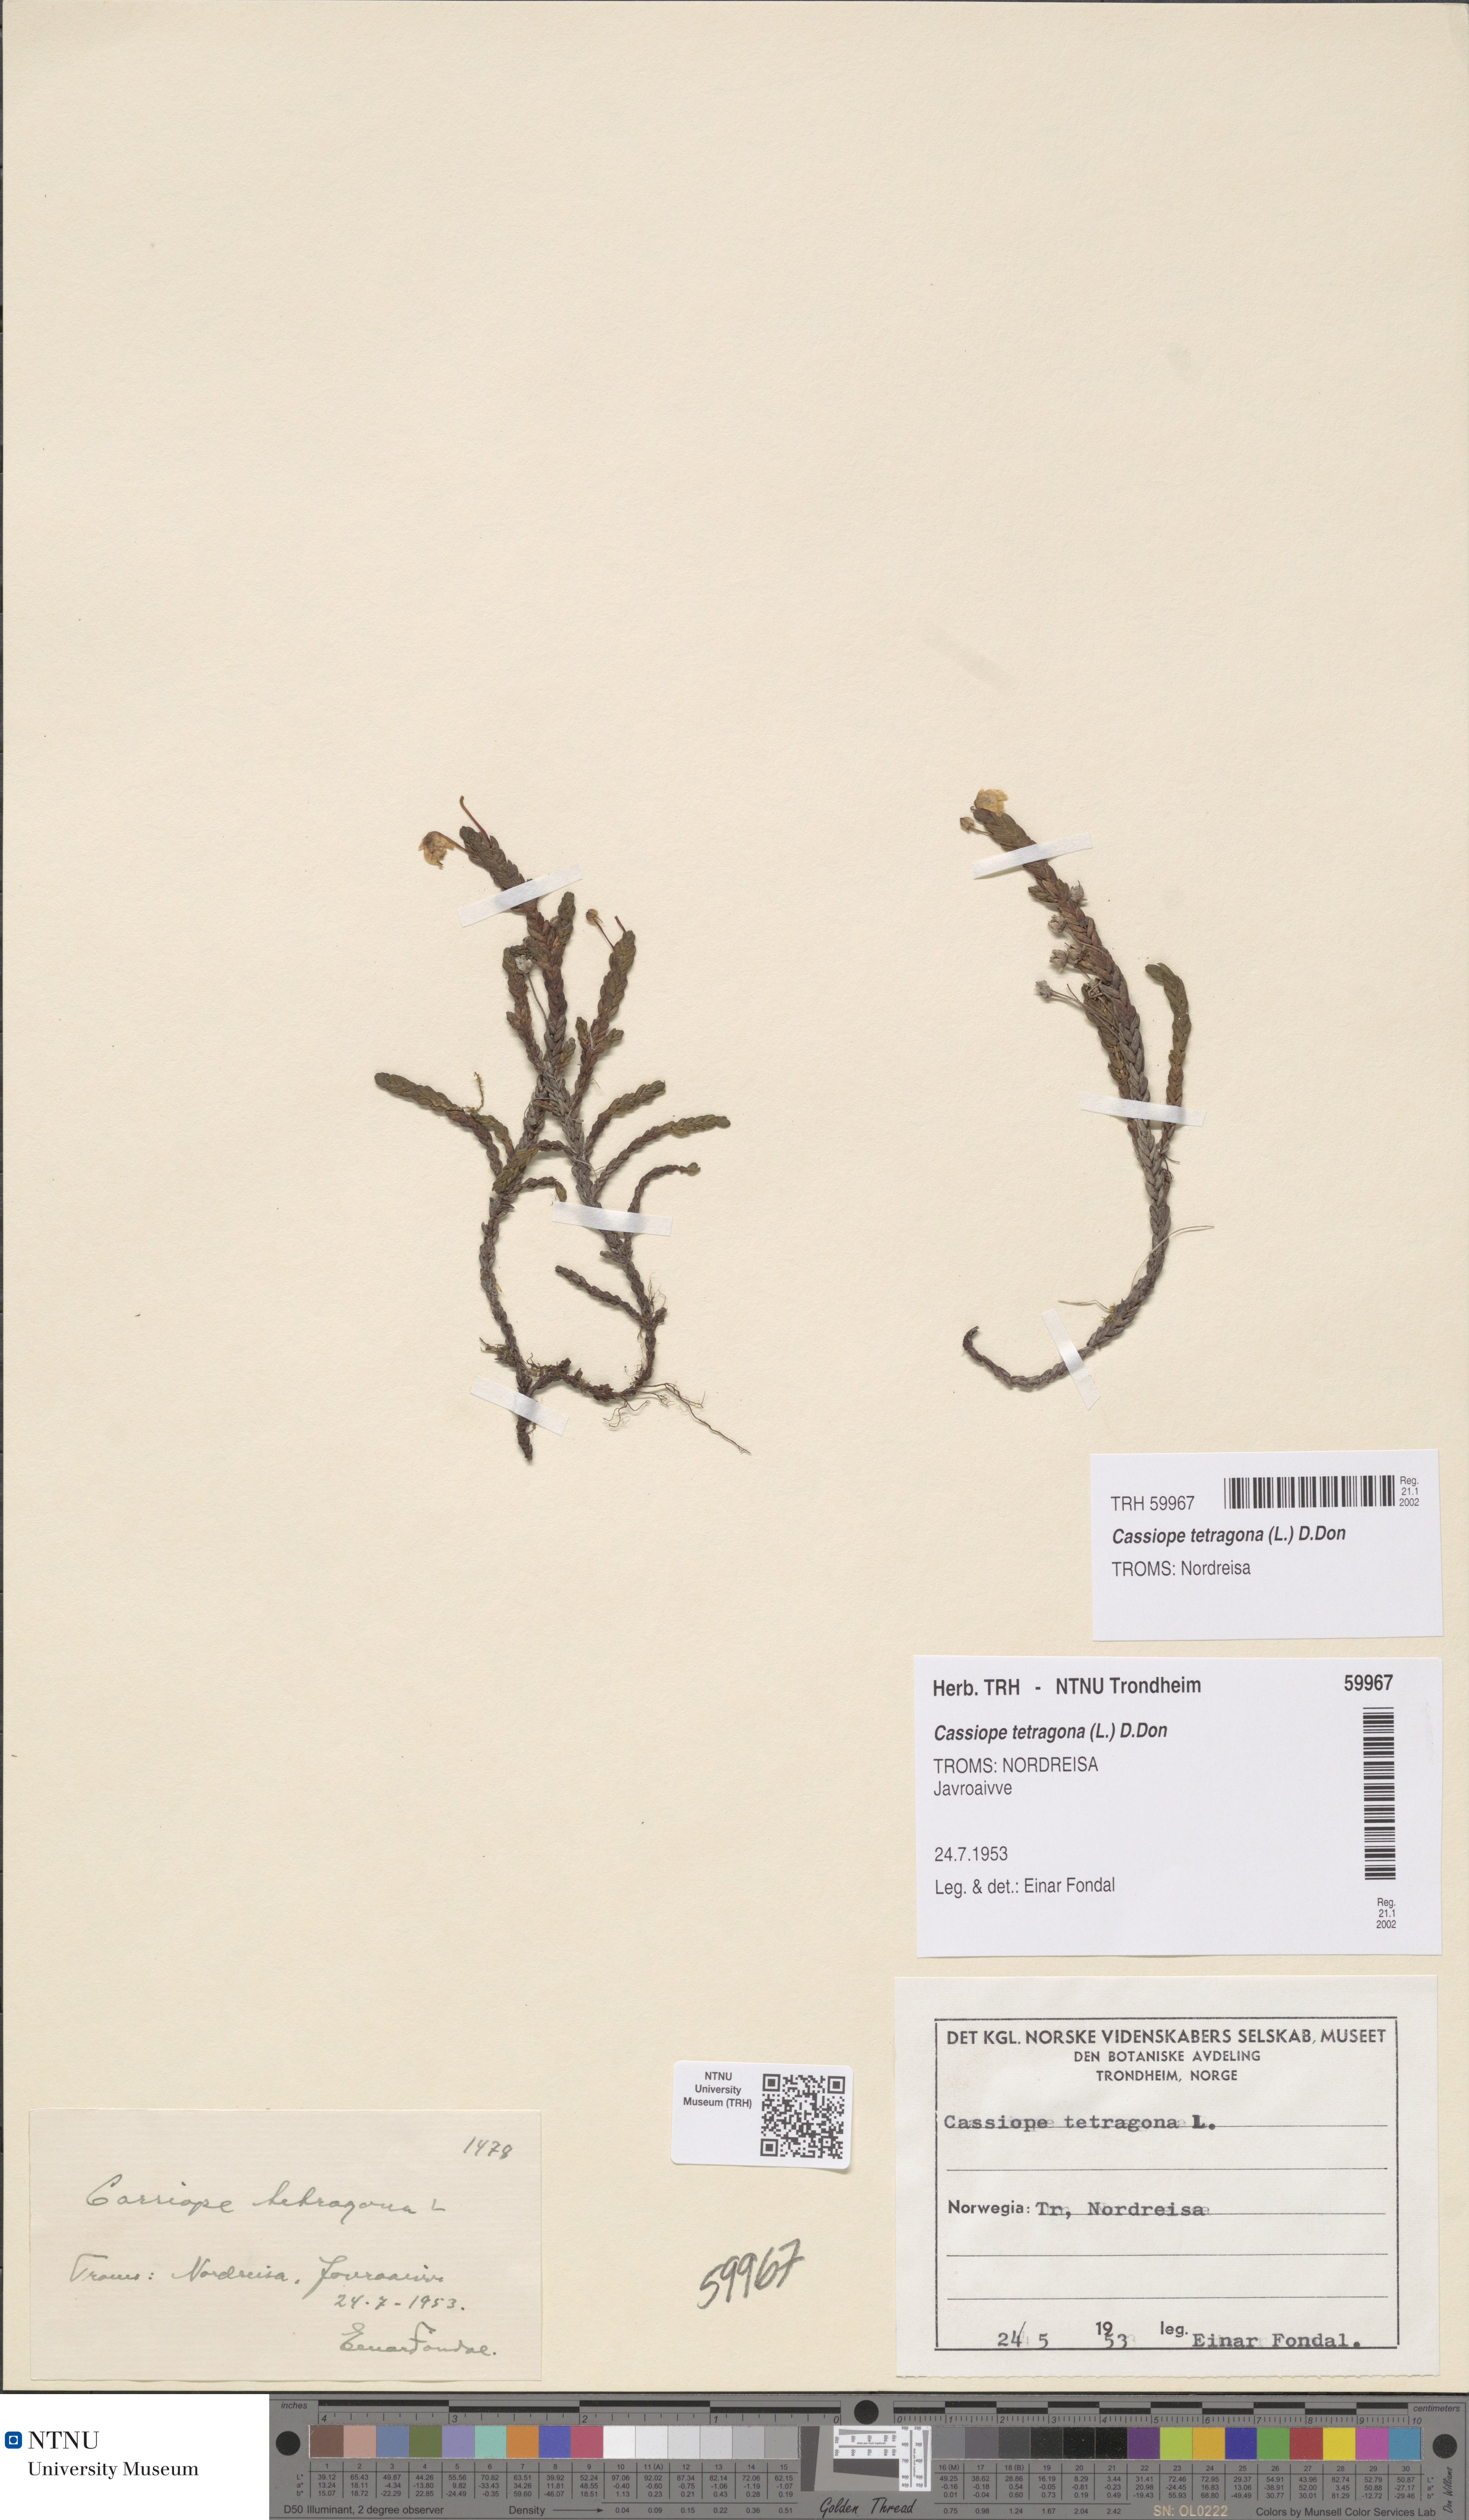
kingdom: Plantae
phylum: Tracheophyta
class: Magnoliopsida
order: Ericales
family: Ericaceae
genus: Cassiope
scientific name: Cassiope tetragona
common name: Arctic bell heather
